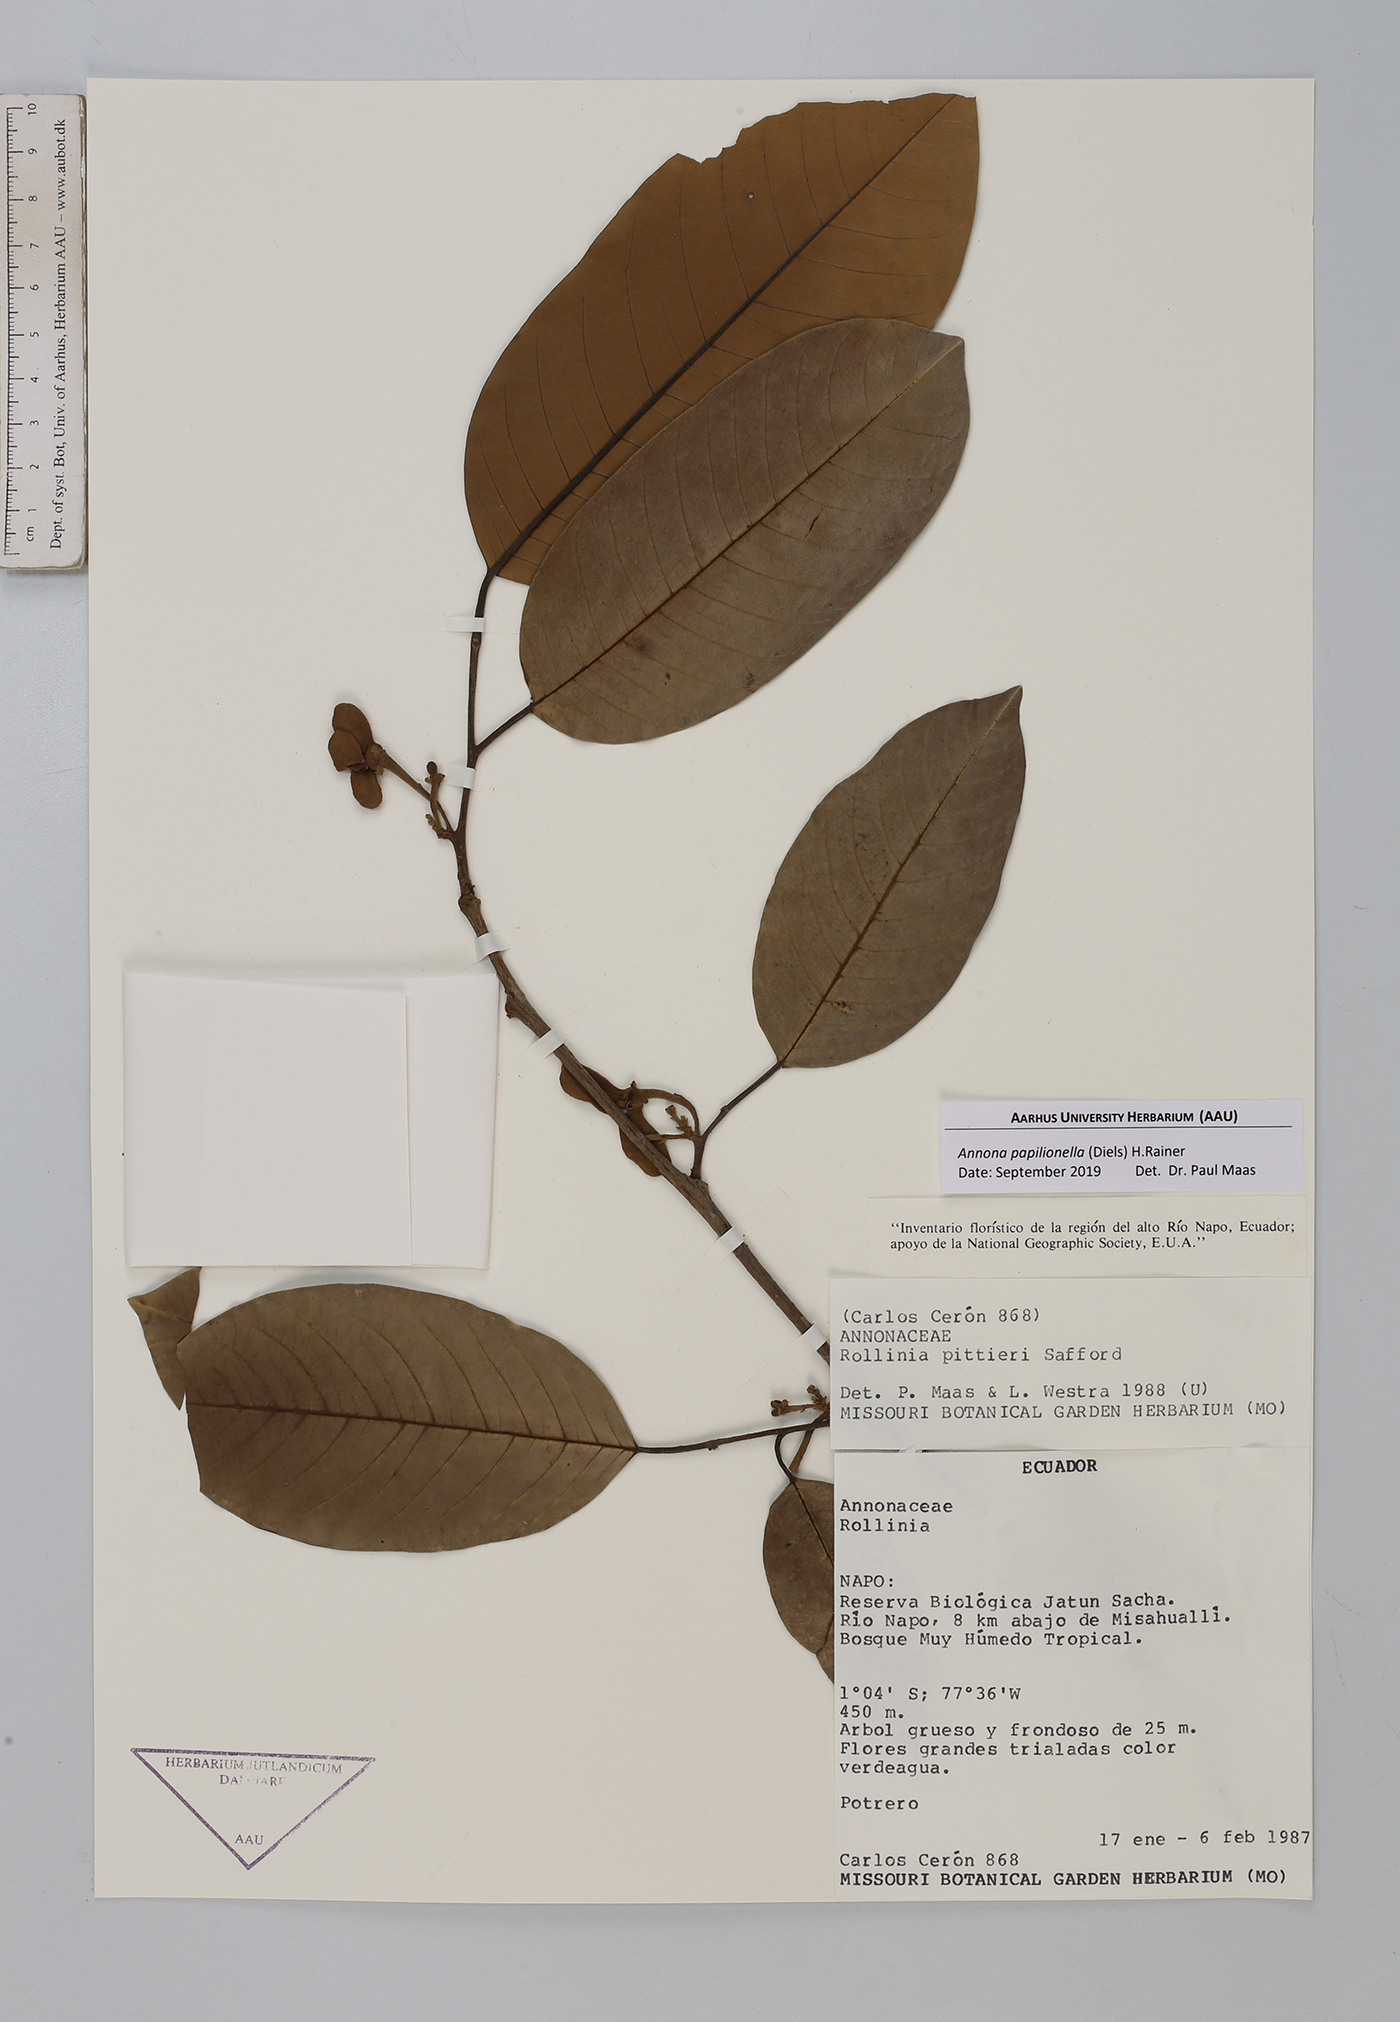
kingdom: Plantae
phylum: Tracheophyta
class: Magnoliopsida
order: Magnoliales
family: Annonaceae
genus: Annona
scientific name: Annona papilionella
